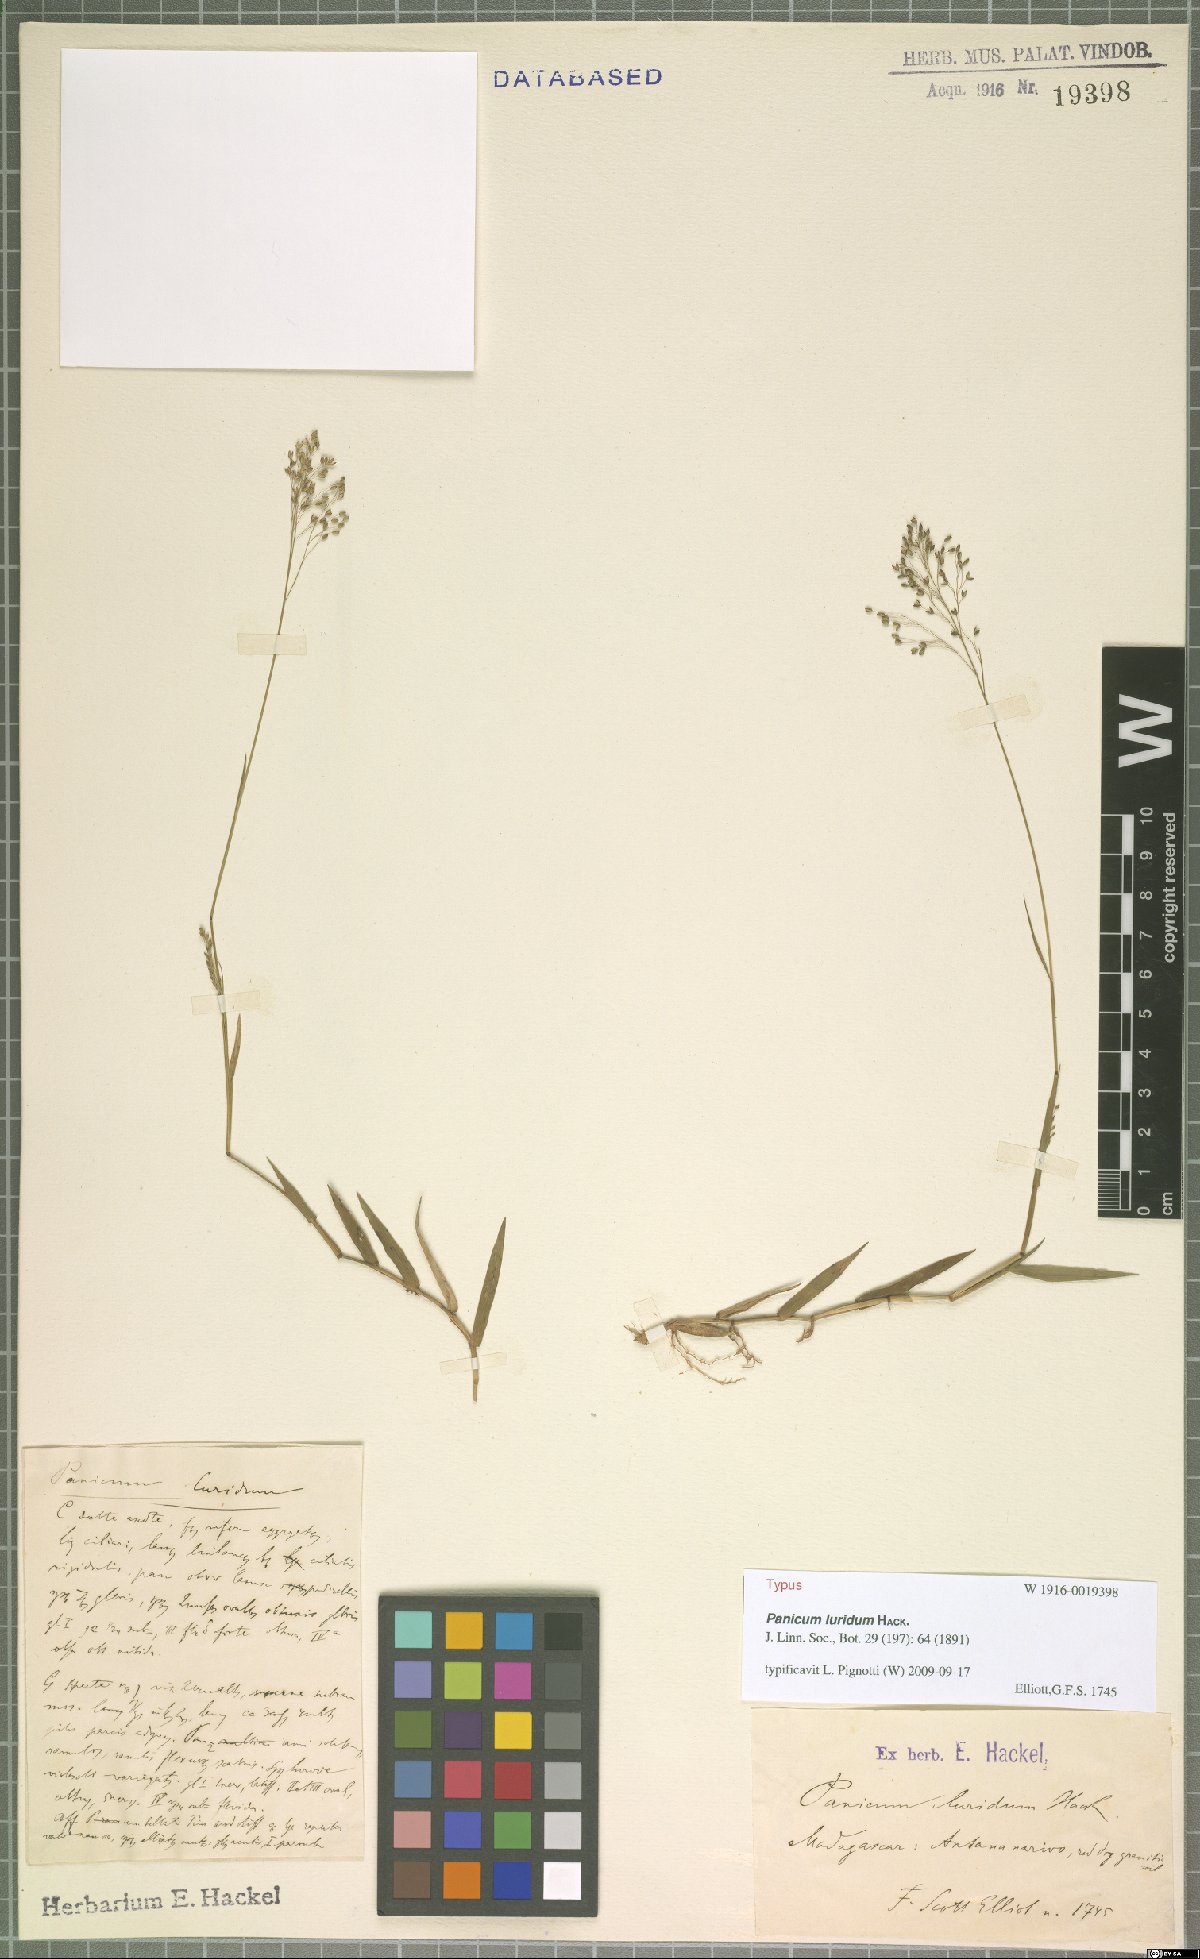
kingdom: Plantae
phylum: Tracheophyta
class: Liliopsida
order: Poales
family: Poaceae
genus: Panicum
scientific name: Panicum luridum
